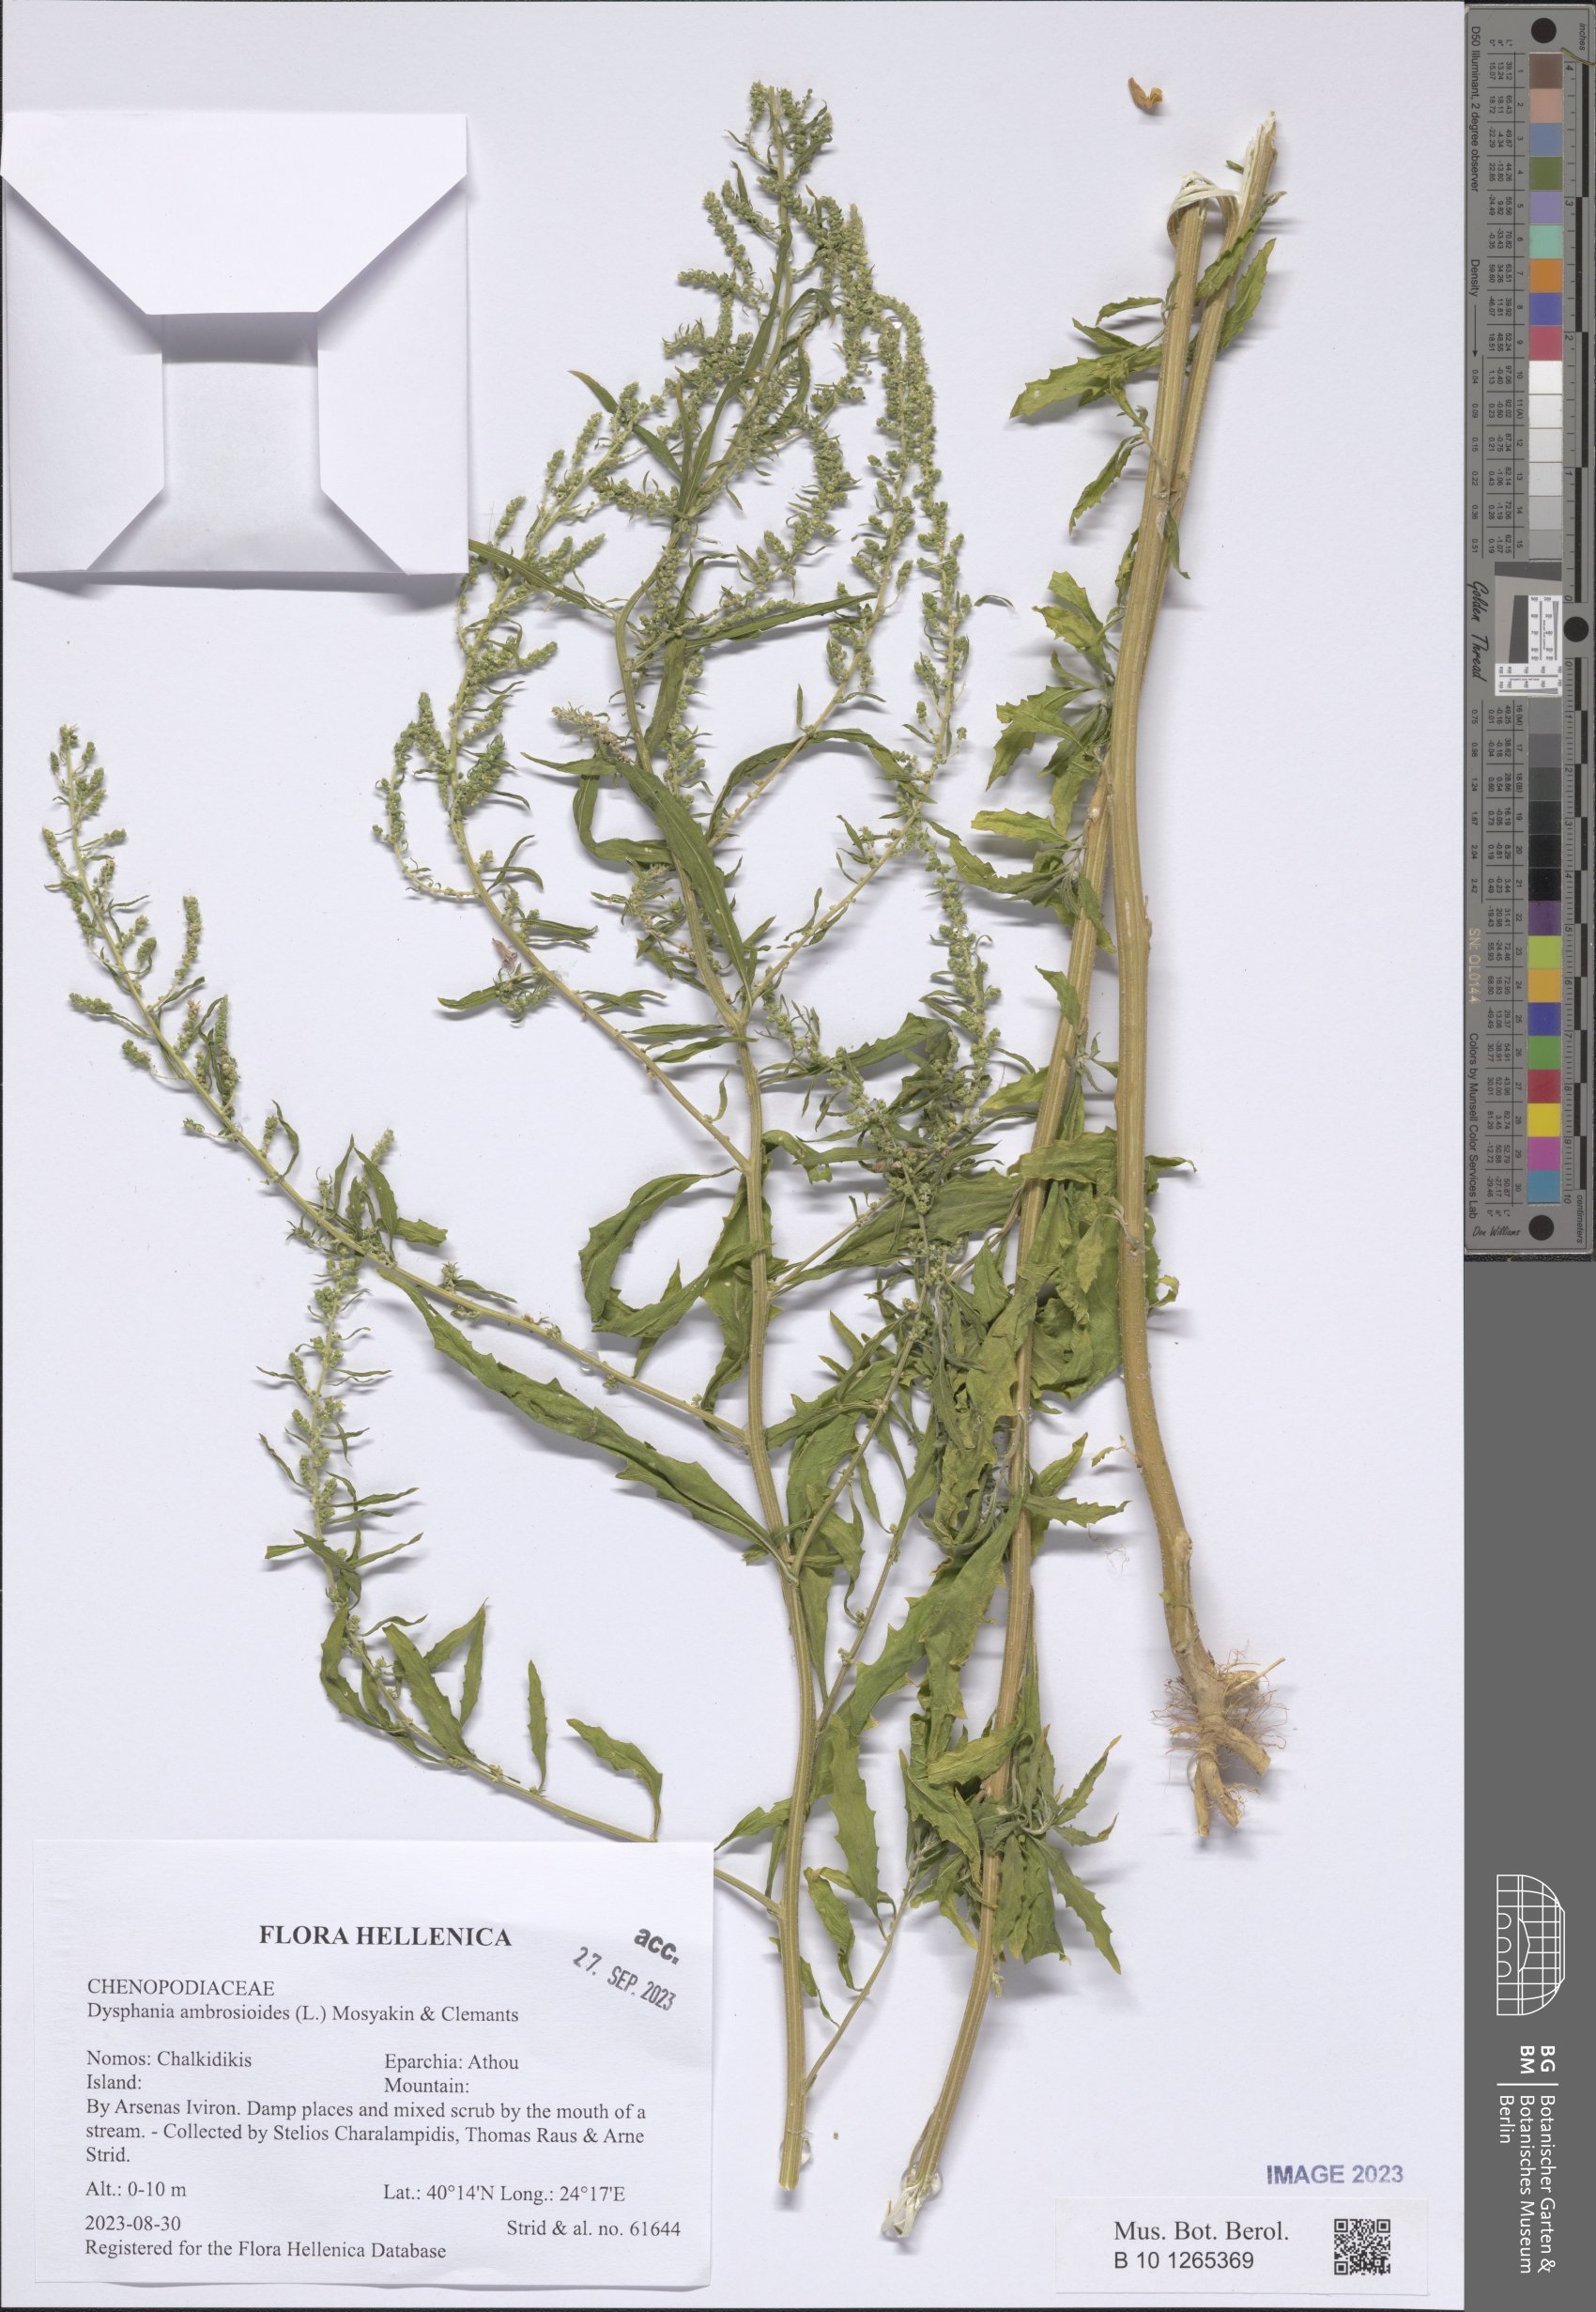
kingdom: Plantae
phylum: Tracheophyta
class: Magnoliopsida
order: Caryophyllales
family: Amaranthaceae
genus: Dysphania
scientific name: Dysphania ambrosioides
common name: Wormseed
